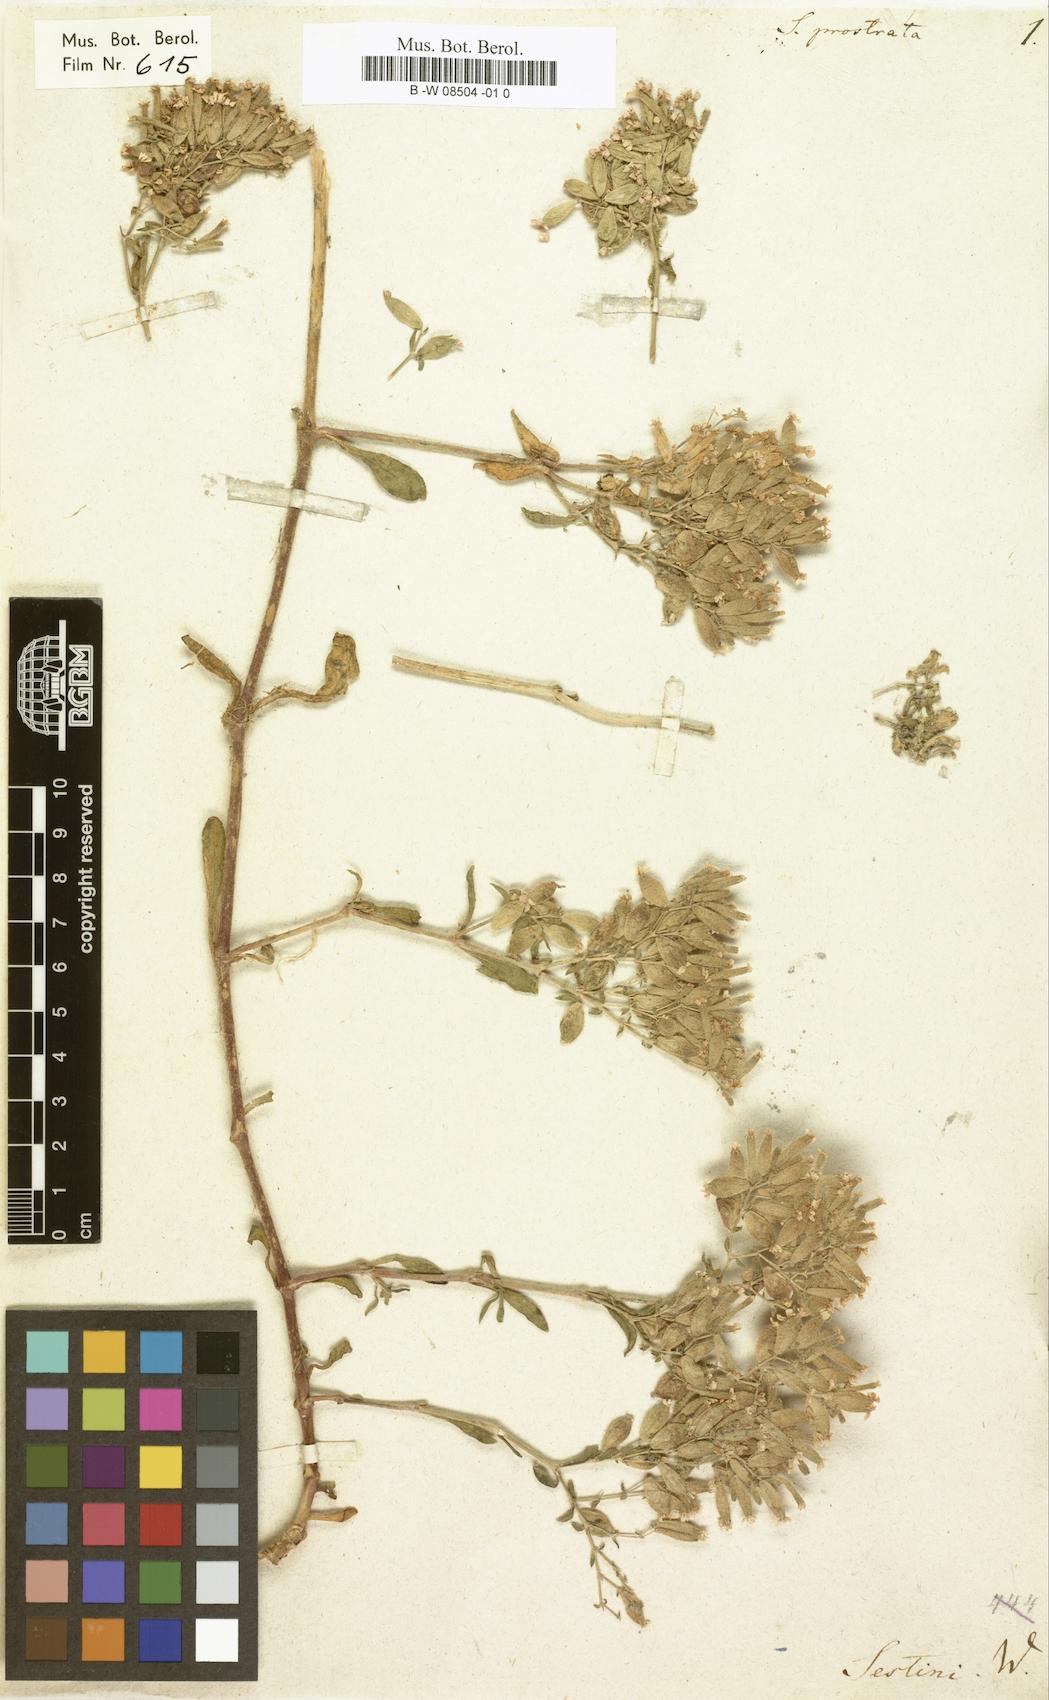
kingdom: Plantae
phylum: Tracheophyta
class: Magnoliopsida
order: Caryophyllales
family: Caryophyllaceae
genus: Saponaria
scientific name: Saponaria prostrata
